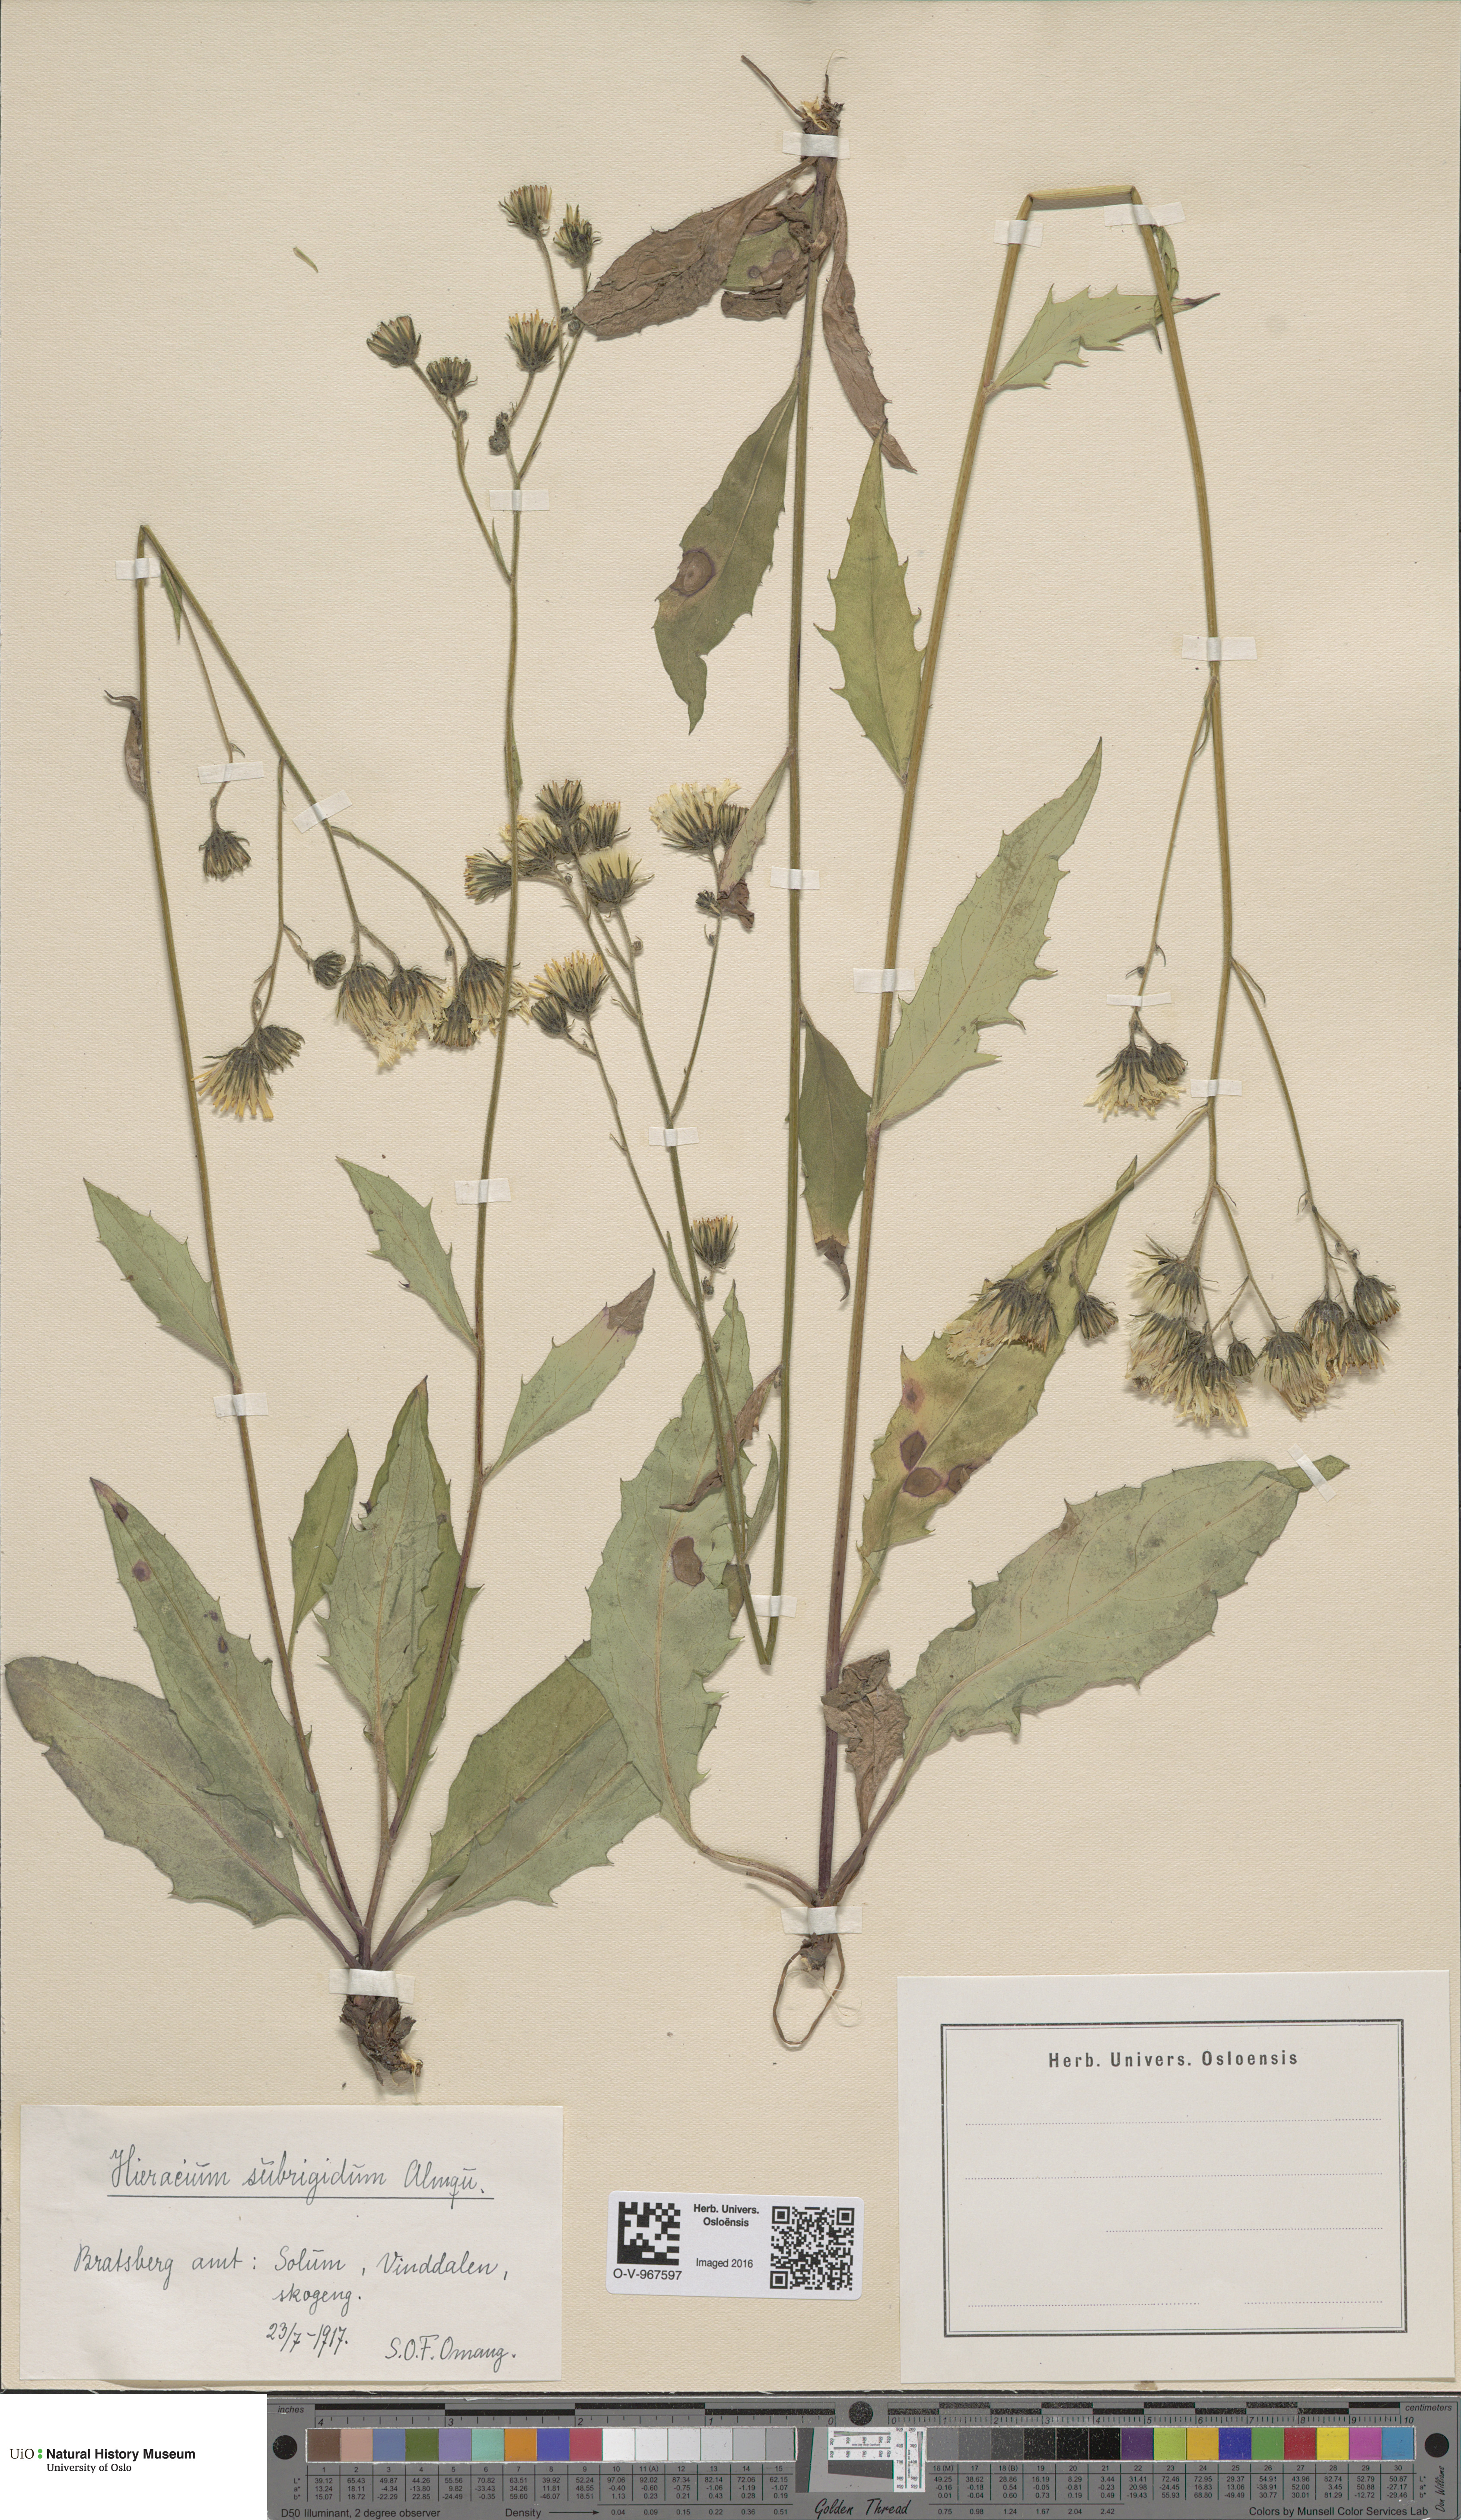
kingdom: Plantae
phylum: Tracheophyta
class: Magnoliopsida
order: Asterales
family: Asteraceae
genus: Hieracium
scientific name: Hieracium subrigidum
